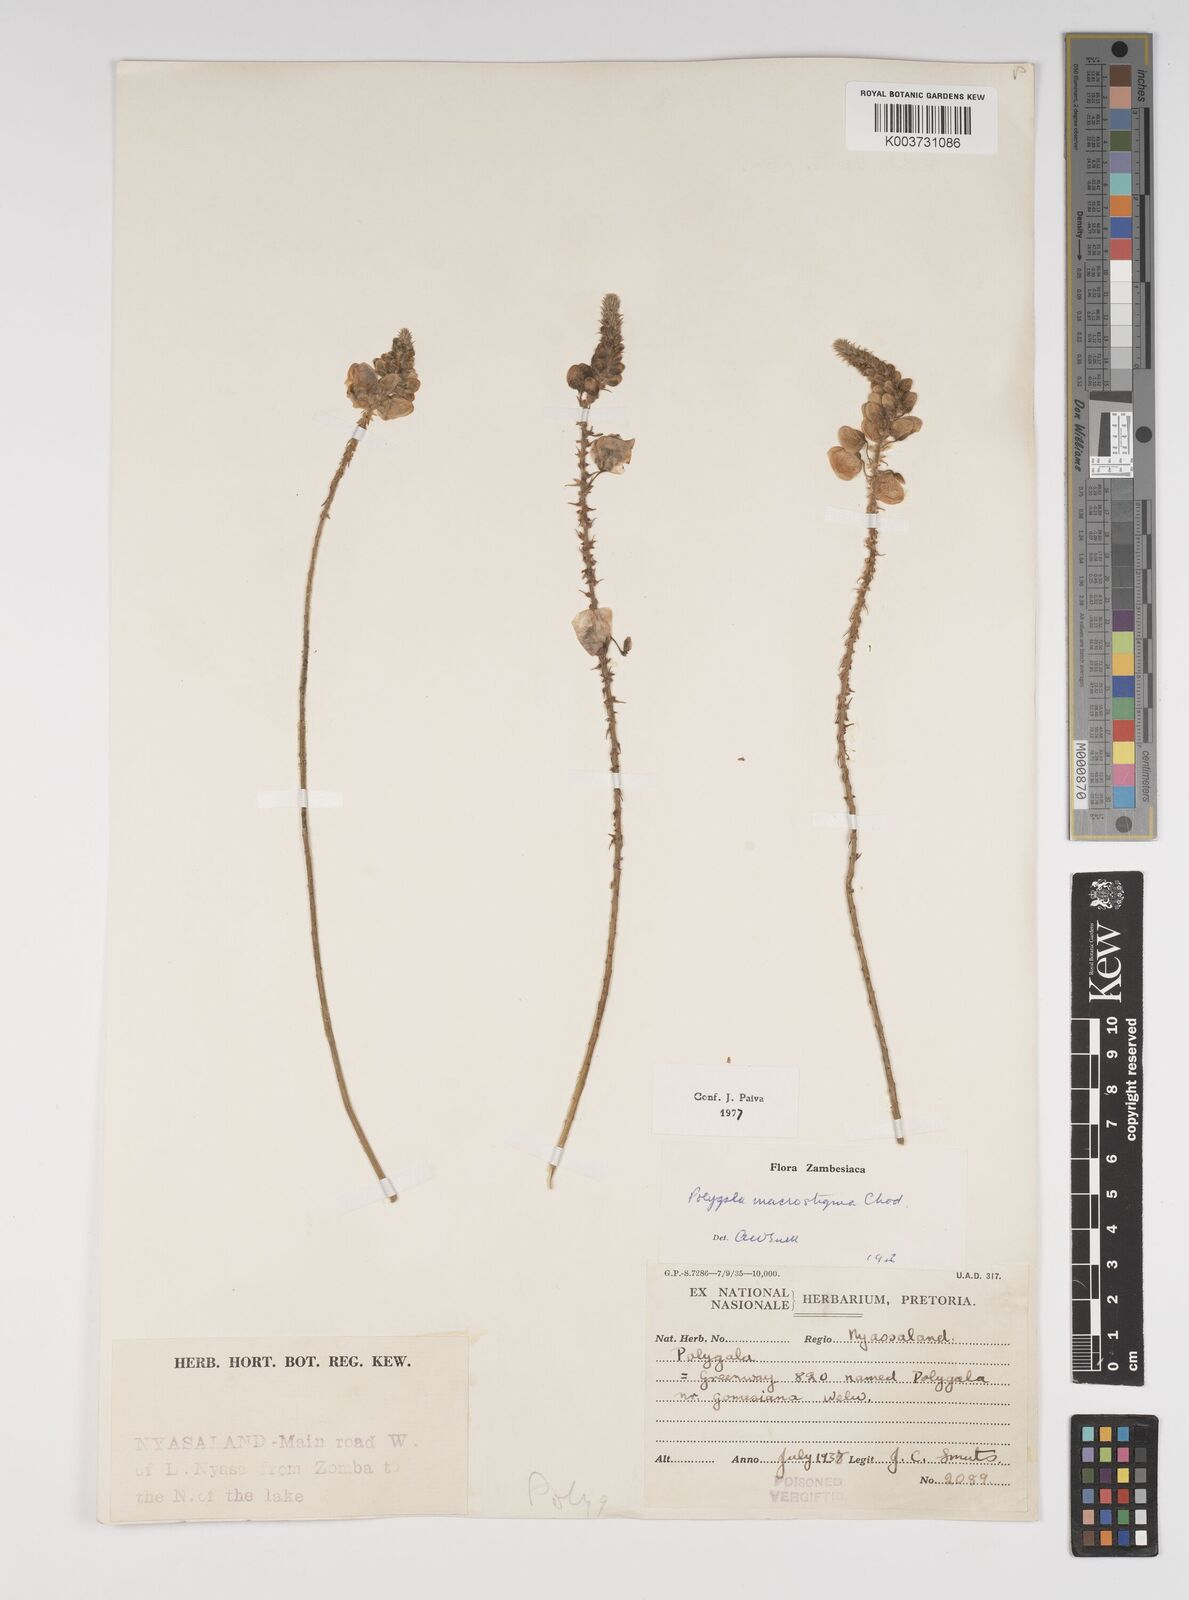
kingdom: Plantae
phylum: Tracheophyta
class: Magnoliopsida
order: Fabales
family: Polygalaceae
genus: Polygala
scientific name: Polygala macrostigma
